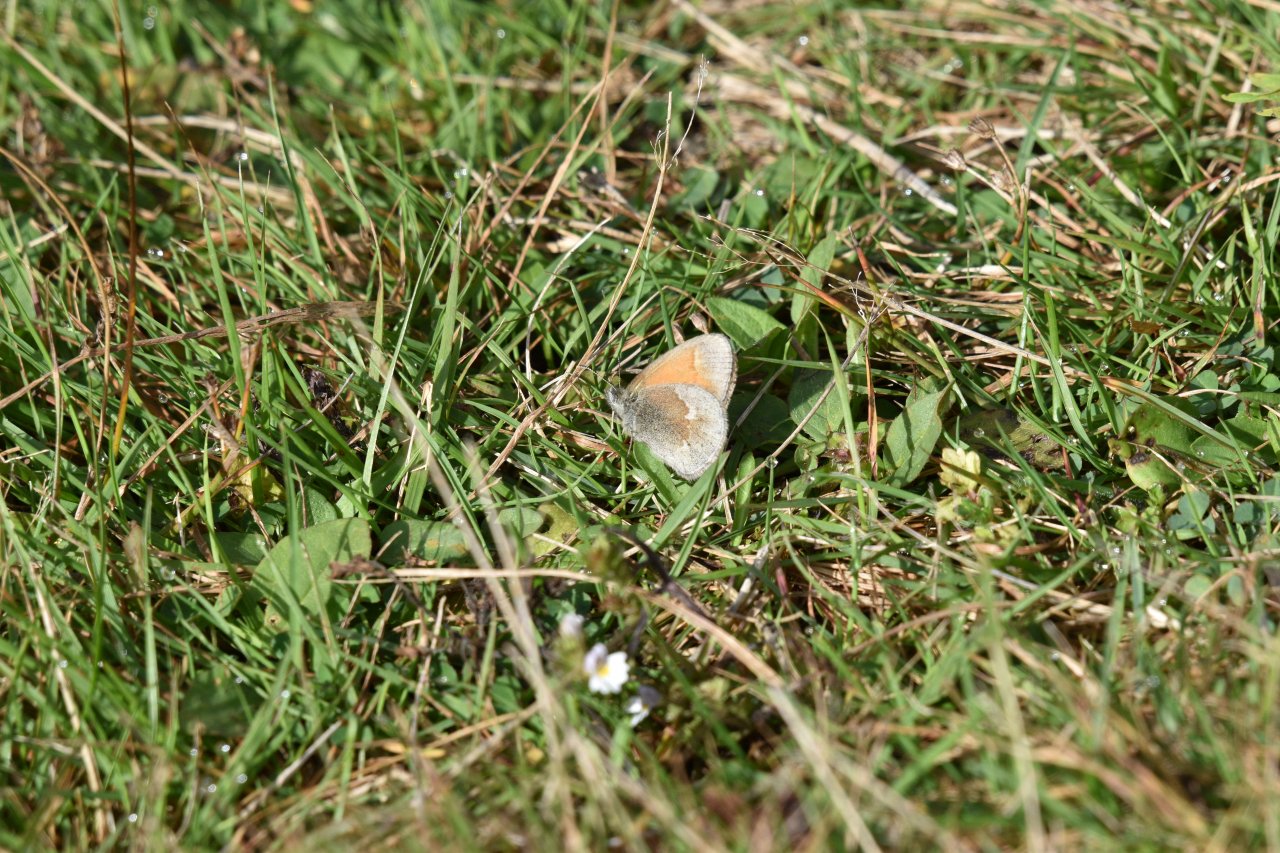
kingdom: Animalia
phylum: Arthropoda
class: Insecta
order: Lepidoptera
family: Nymphalidae
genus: Coenonympha
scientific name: Coenonympha tullia
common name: Large Heath
